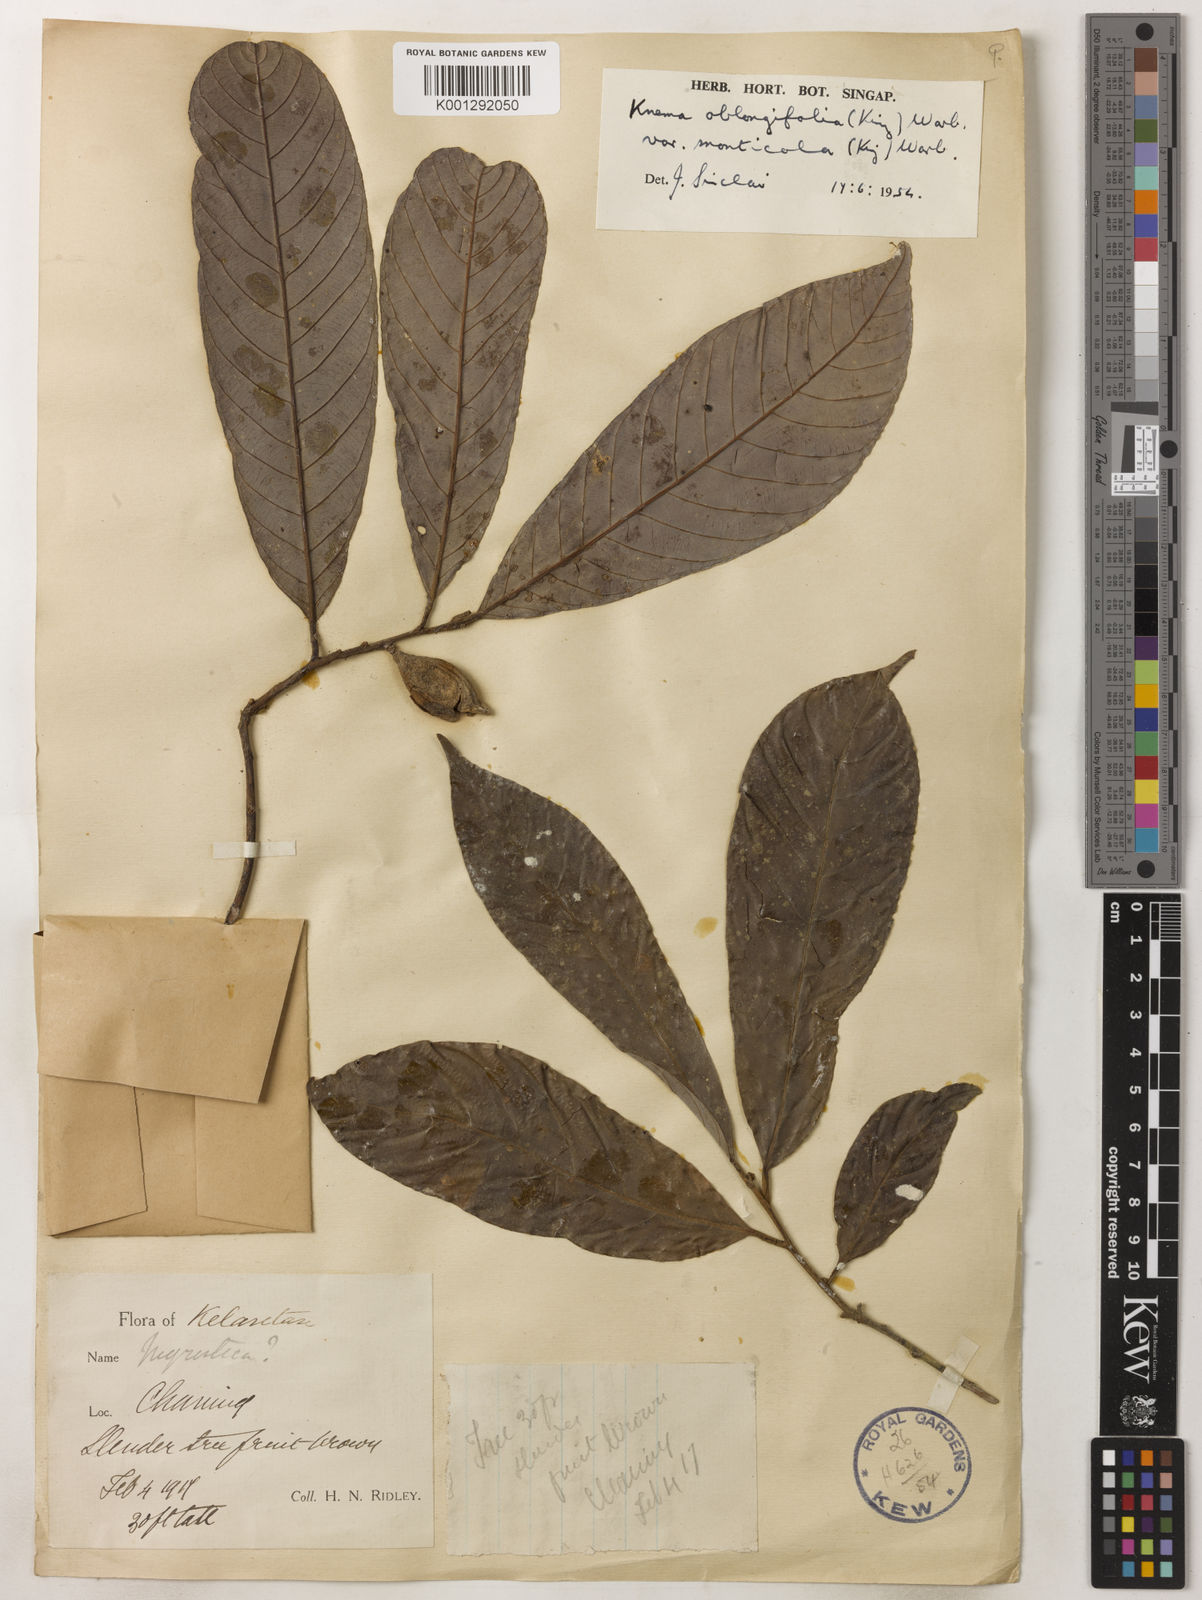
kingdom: Plantae
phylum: Tracheophyta
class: Magnoliopsida
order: Magnoliales
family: Myristicaceae
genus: Knema
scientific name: Knema
